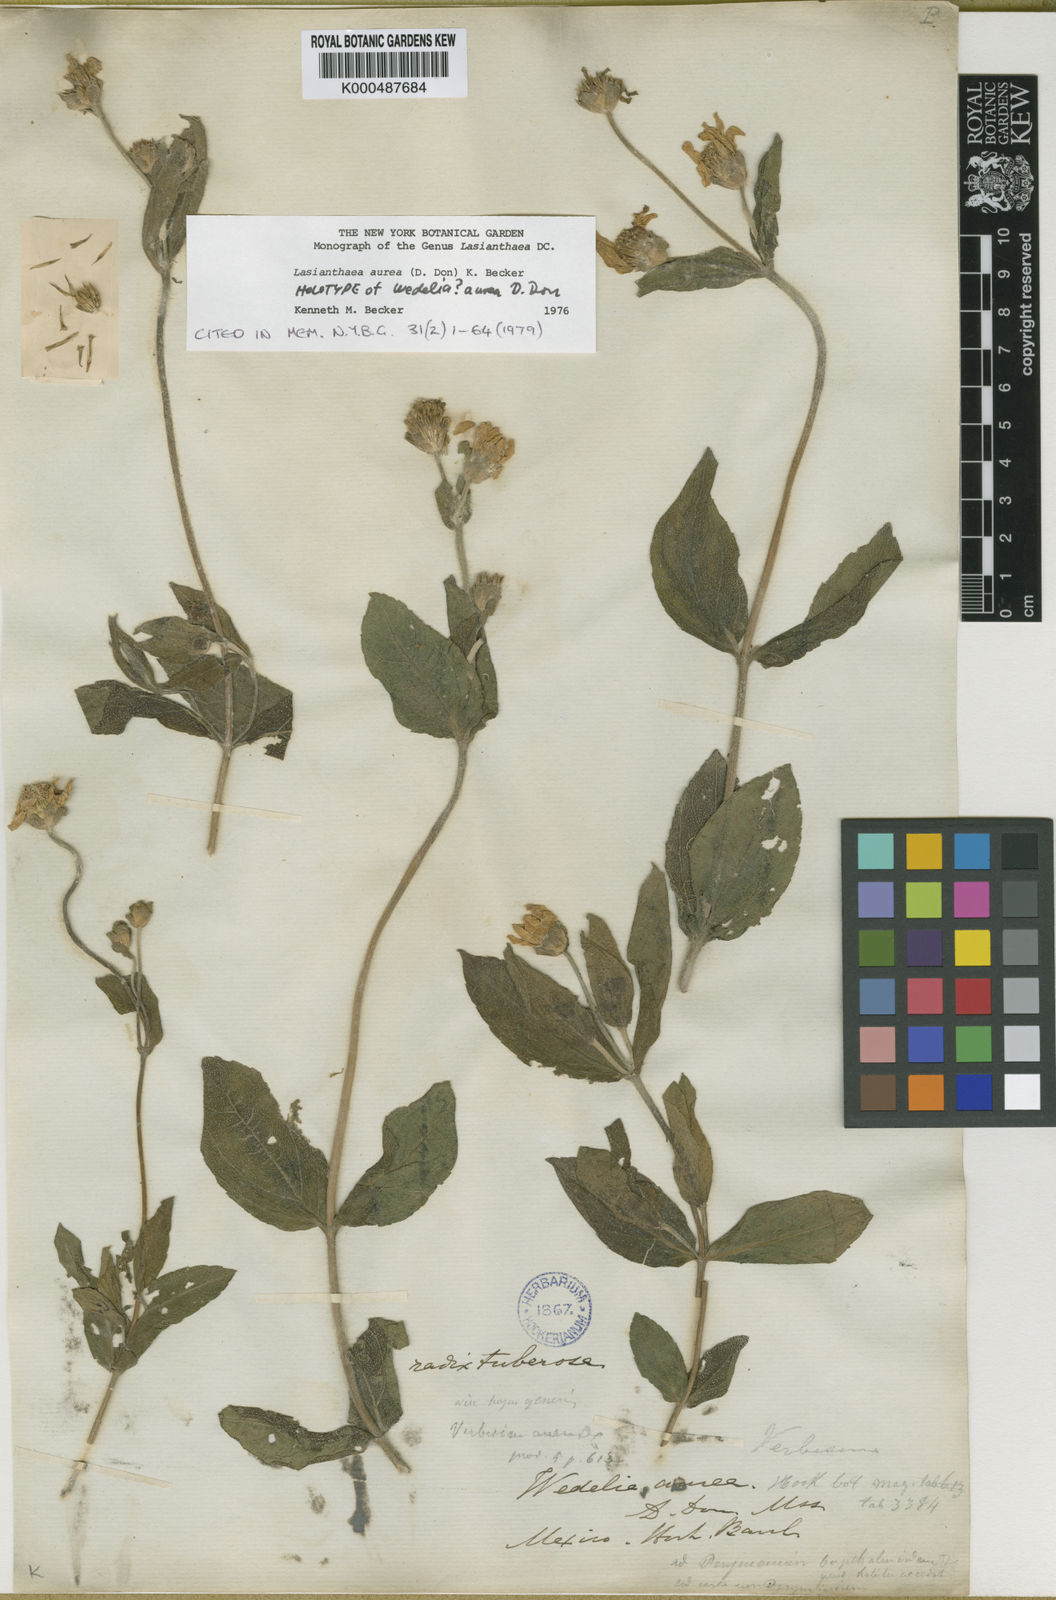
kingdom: Plantae
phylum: Tracheophyta
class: Magnoliopsida
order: Asterales
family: Asteraceae
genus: Lasianthaea
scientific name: Lasianthaea aurea
